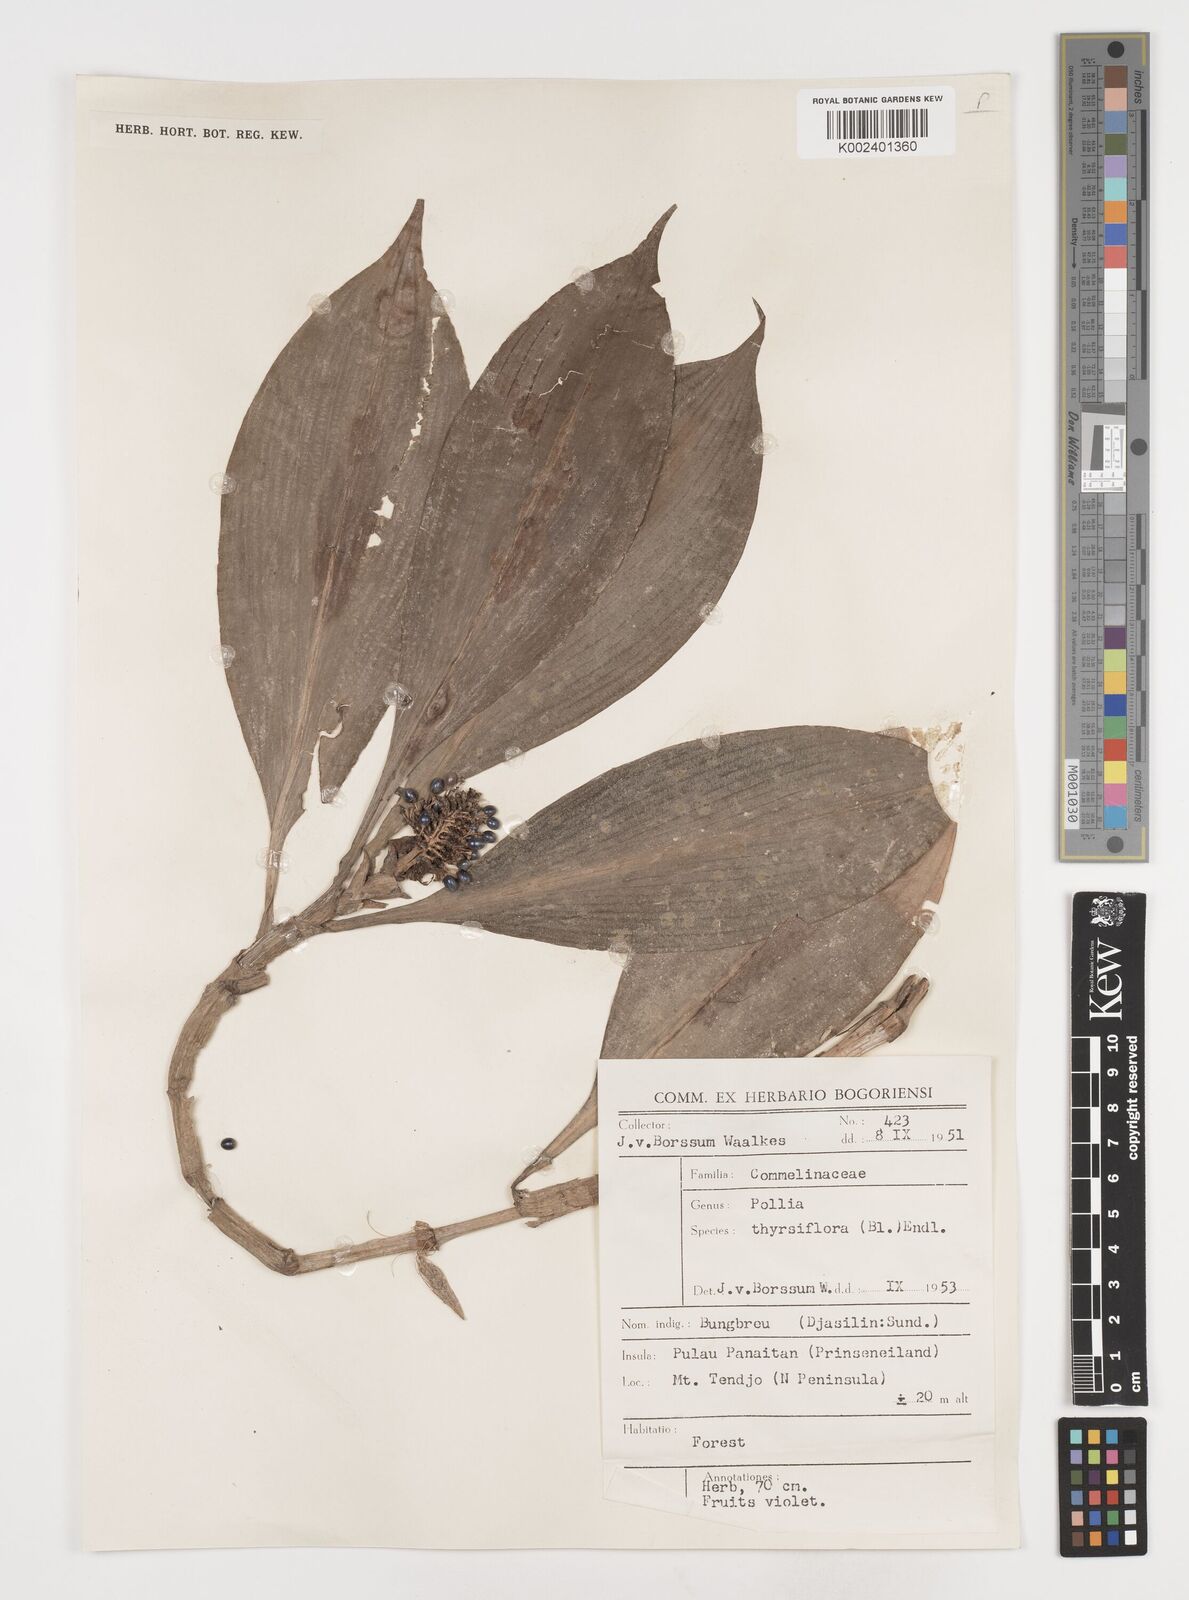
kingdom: Plantae
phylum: Tracheophyta
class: Liliopsida
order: Commelinales
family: Commelinaceae
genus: Pollia
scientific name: Pollia thyrsiflora
